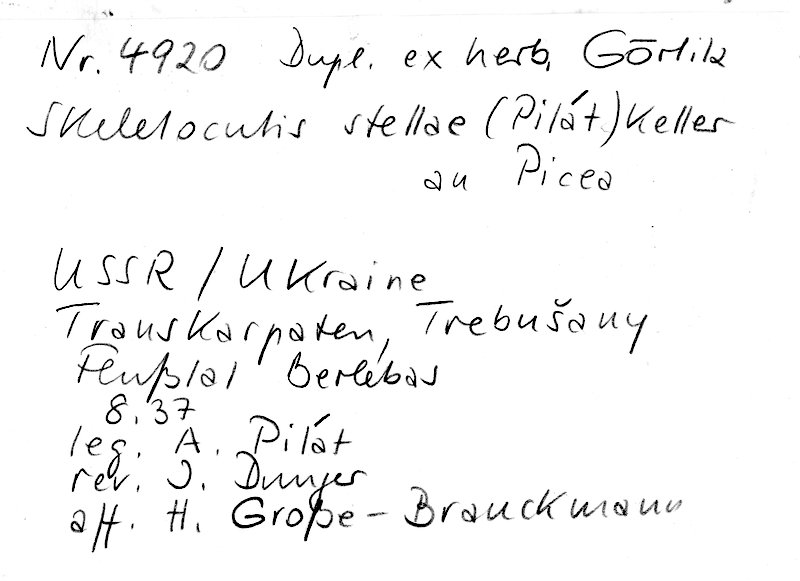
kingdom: Plantae
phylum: Tracheophyta
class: Pinopsida
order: Pinales
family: Pinaceae
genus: Picea
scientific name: Picea
